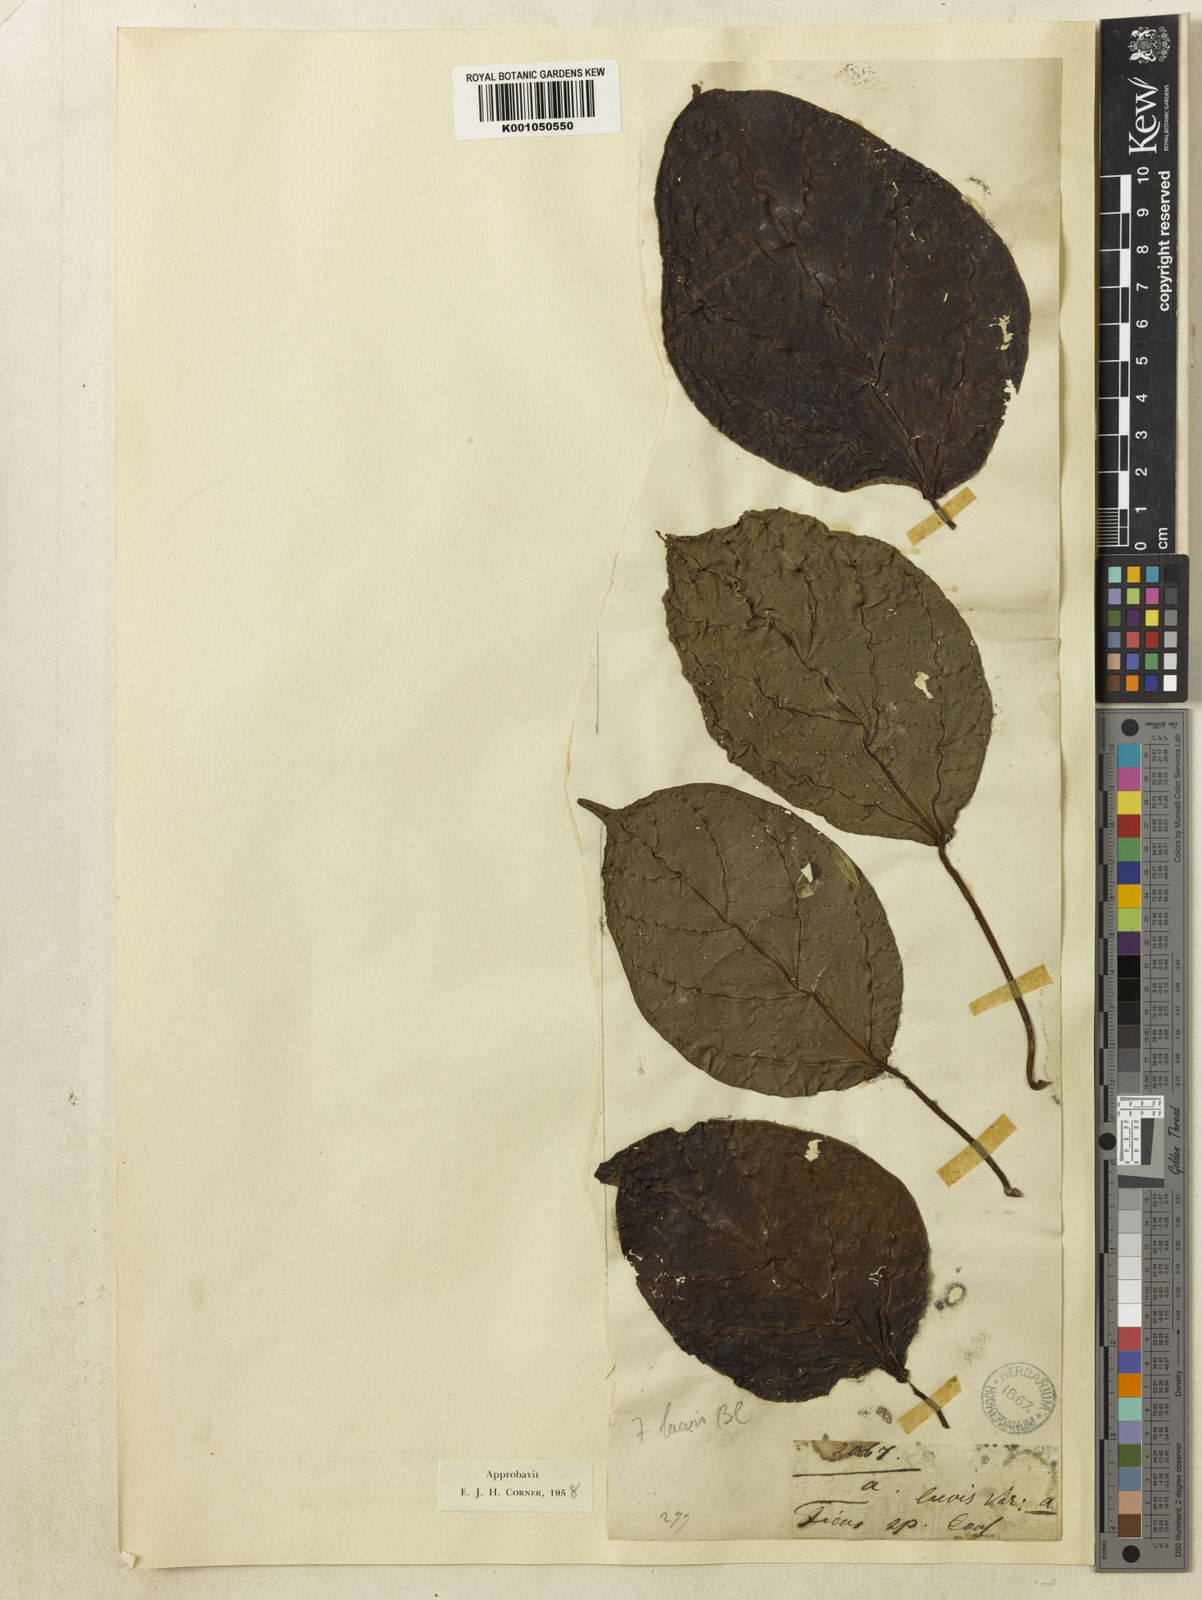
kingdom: Plantae
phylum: Tracheophyta
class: Magnoliopsida
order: Rosales
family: Moraceae
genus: Ficus
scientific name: Ficus laevis
